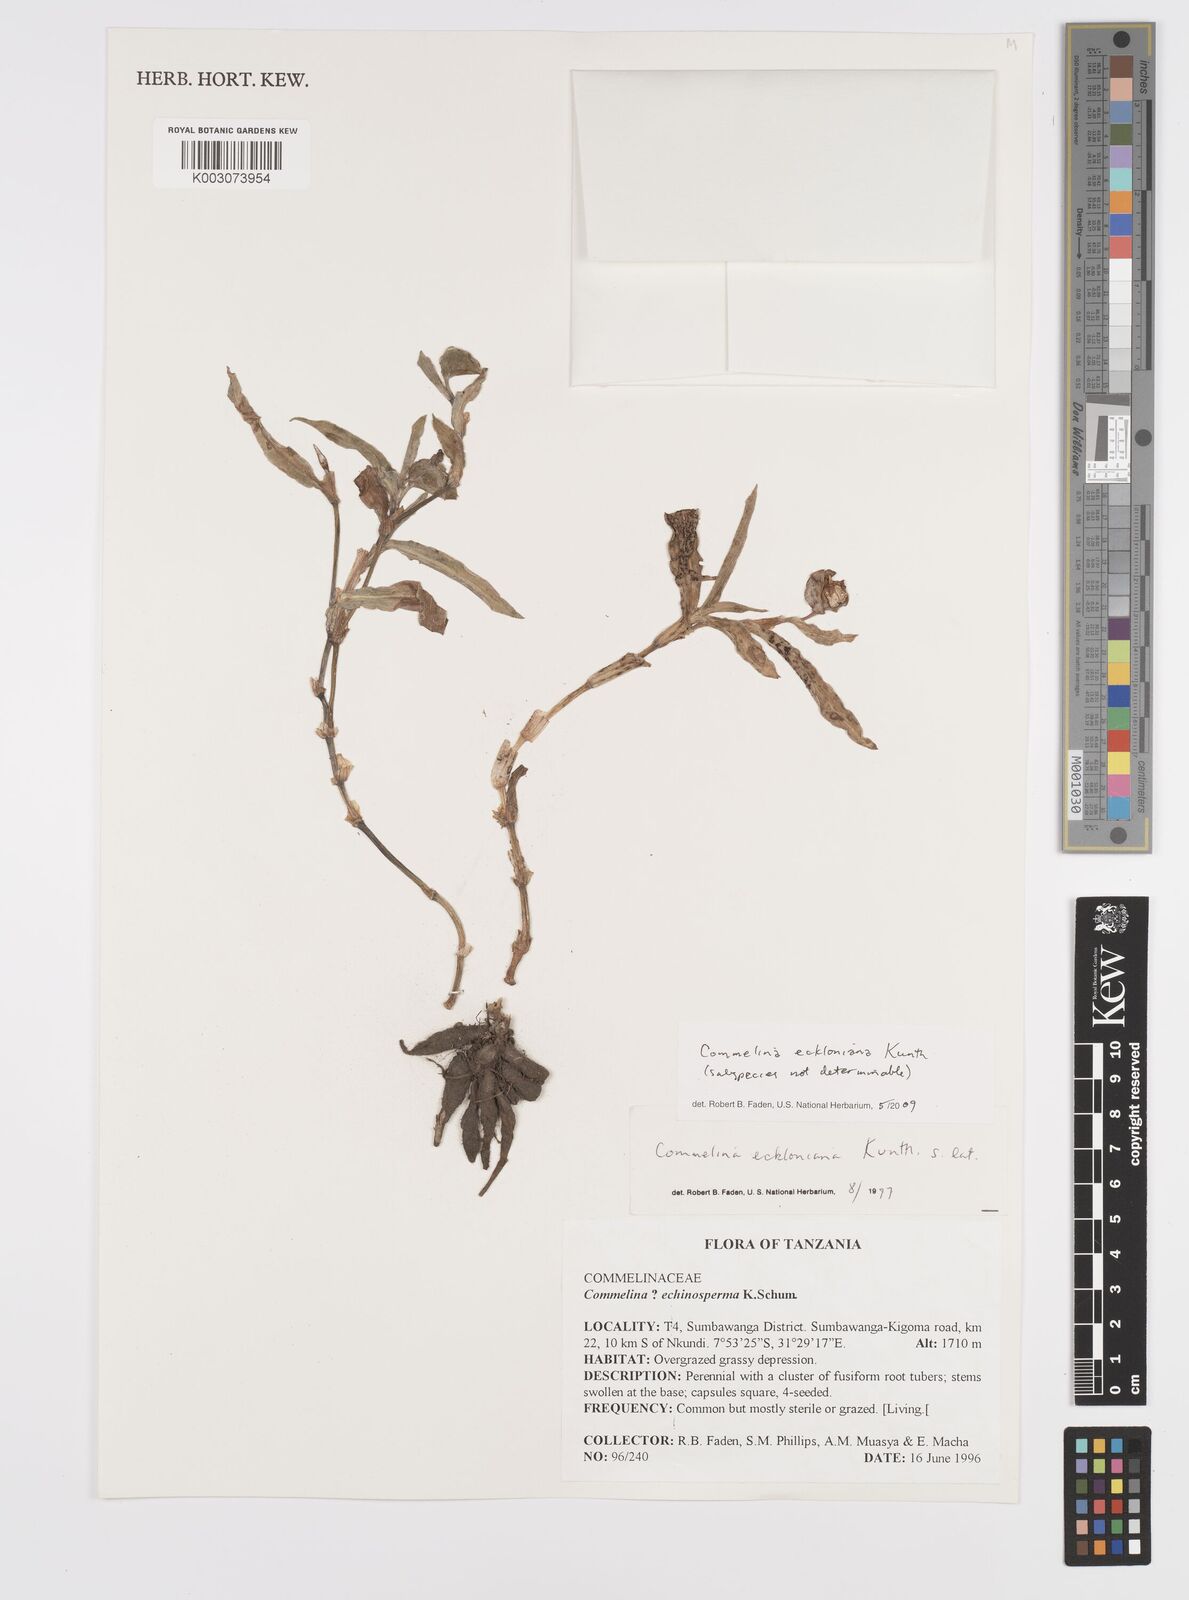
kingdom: Plantae
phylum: Tracheophyta
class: Liliopsida
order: Commelinales
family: Commelinaceae
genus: Commelina
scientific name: Commelina eckloniana
